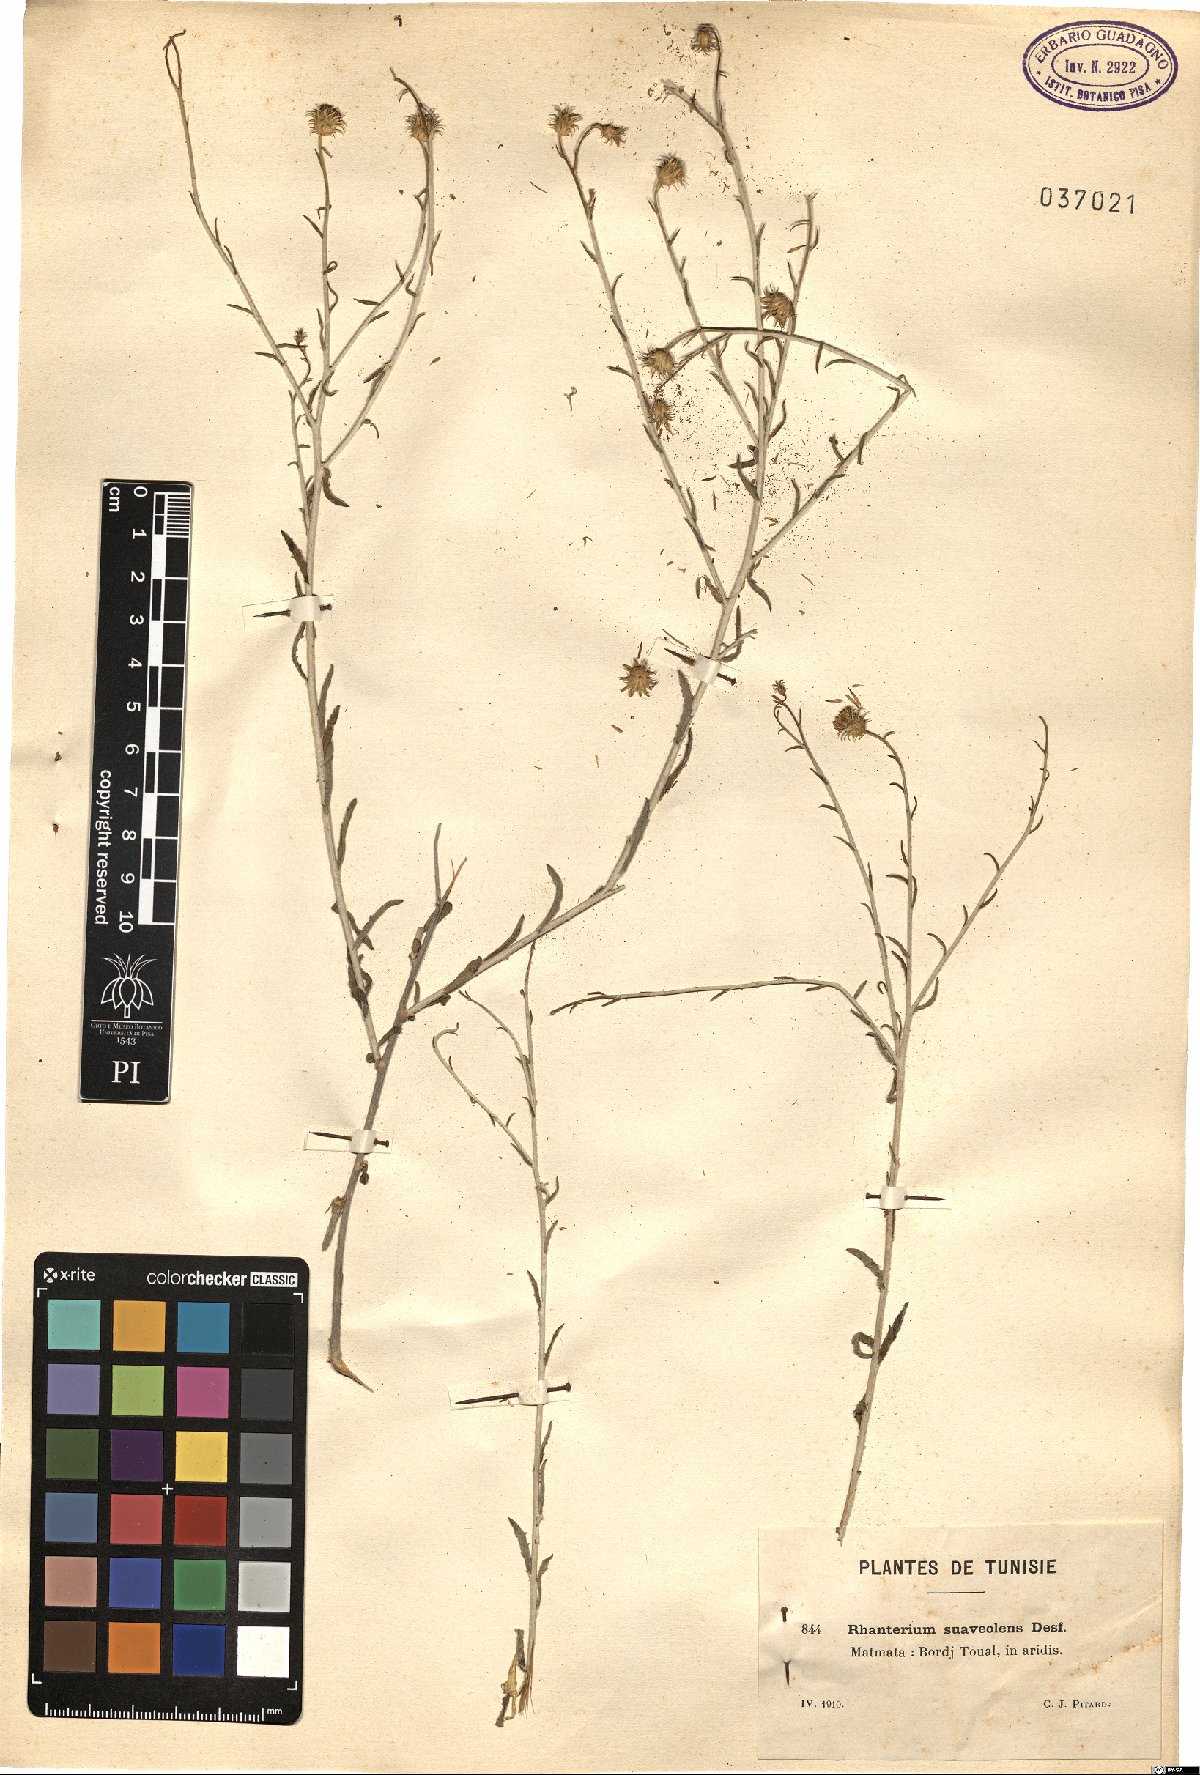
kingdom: Plantae
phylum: Tracheophyta
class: Magnoliopsida
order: Asterales
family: Asteraceae
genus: Rhanterium
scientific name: Rhanterium suaveolens
